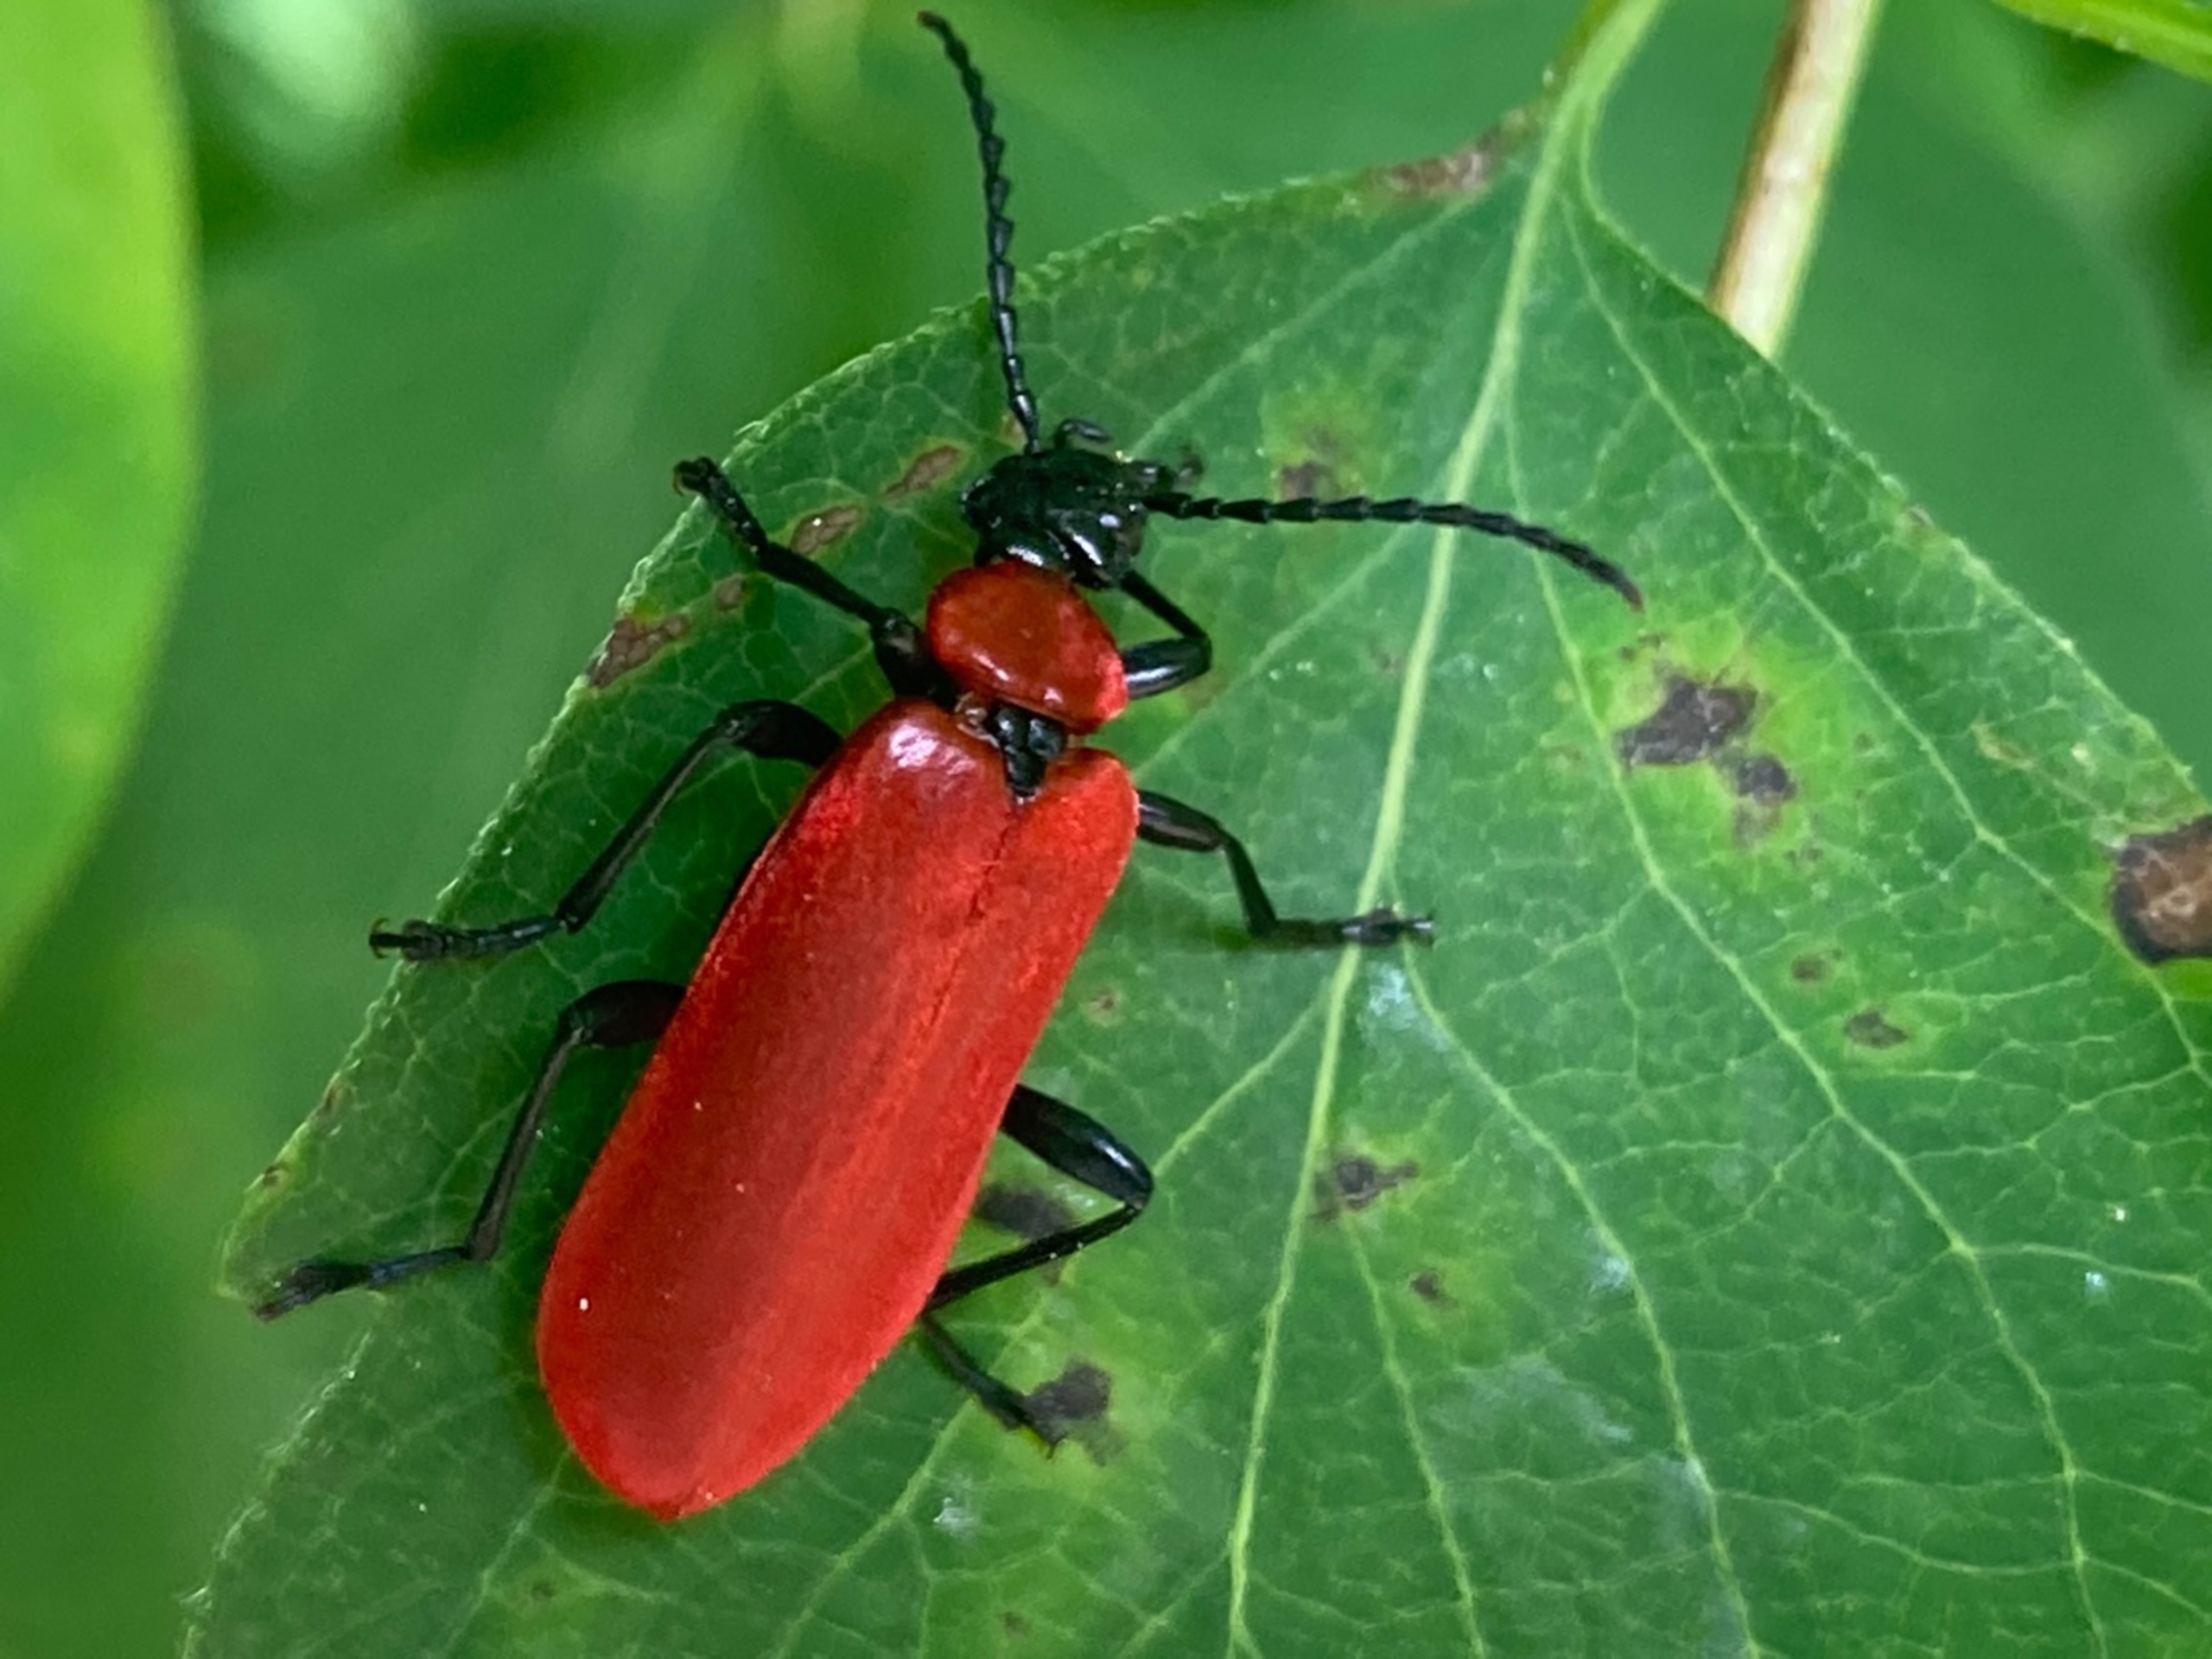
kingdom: Animalia
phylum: Arthropoda
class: Insecta
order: Coleoptera
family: Pyrochroidae
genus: Pyrochroa
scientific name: Pyrochroa coccinea
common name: Sorthovedet kardinalbille
